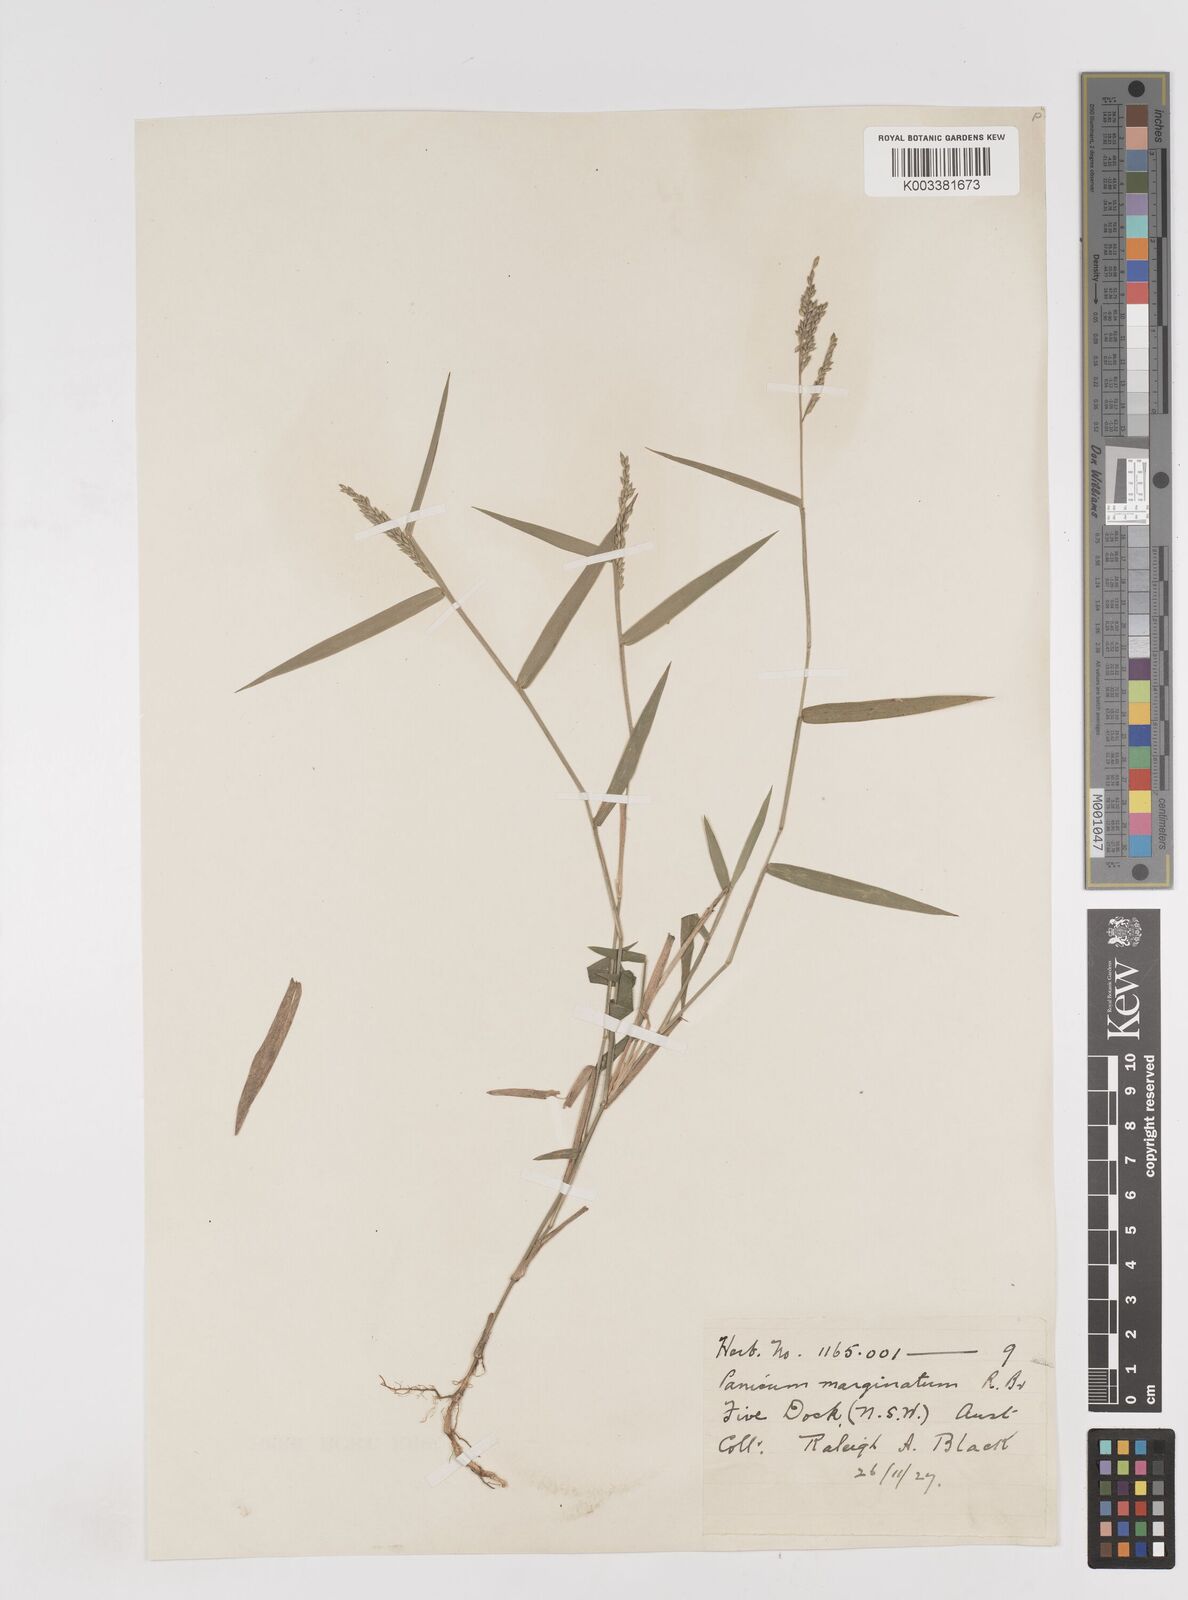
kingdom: Plantae
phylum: Tracheophyta
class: Liliopsida
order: Poales
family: Poaceae
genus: Entolasia
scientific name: Entolasia marginata
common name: Australian panicgrass
